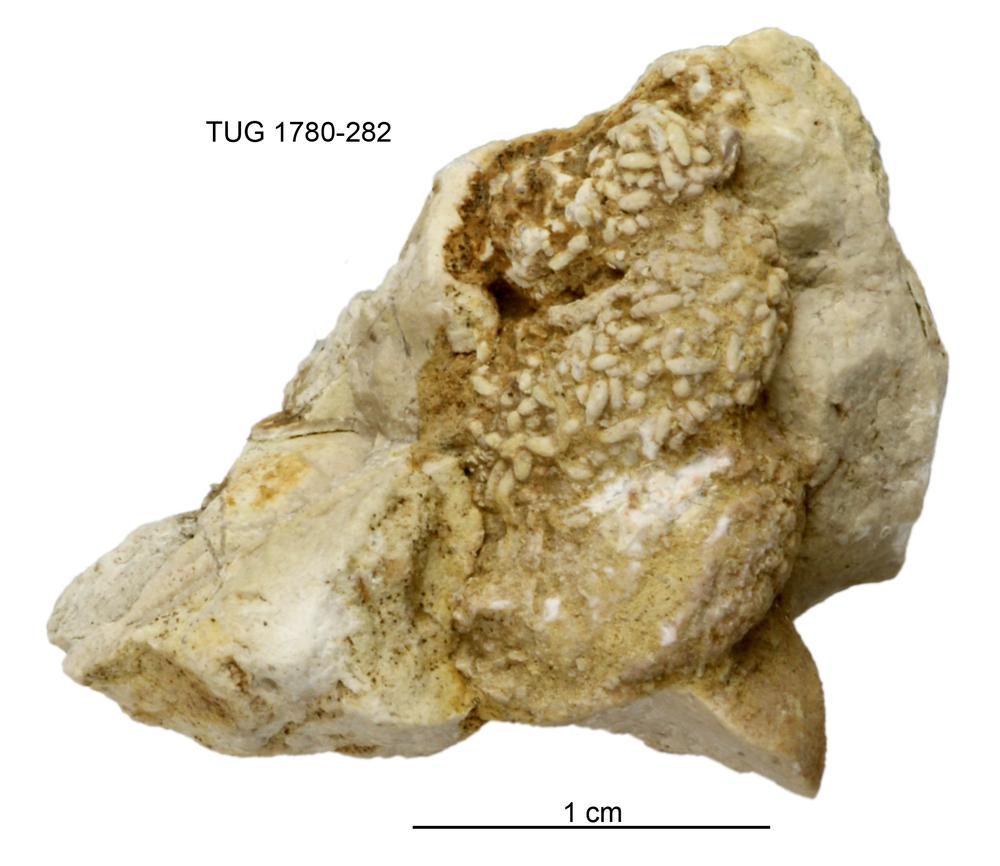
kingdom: Animalia
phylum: Mollusca
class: Gastropoda
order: Pleurotomariida
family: Murchisoniidae
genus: Hormotoma
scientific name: Hormotoma
